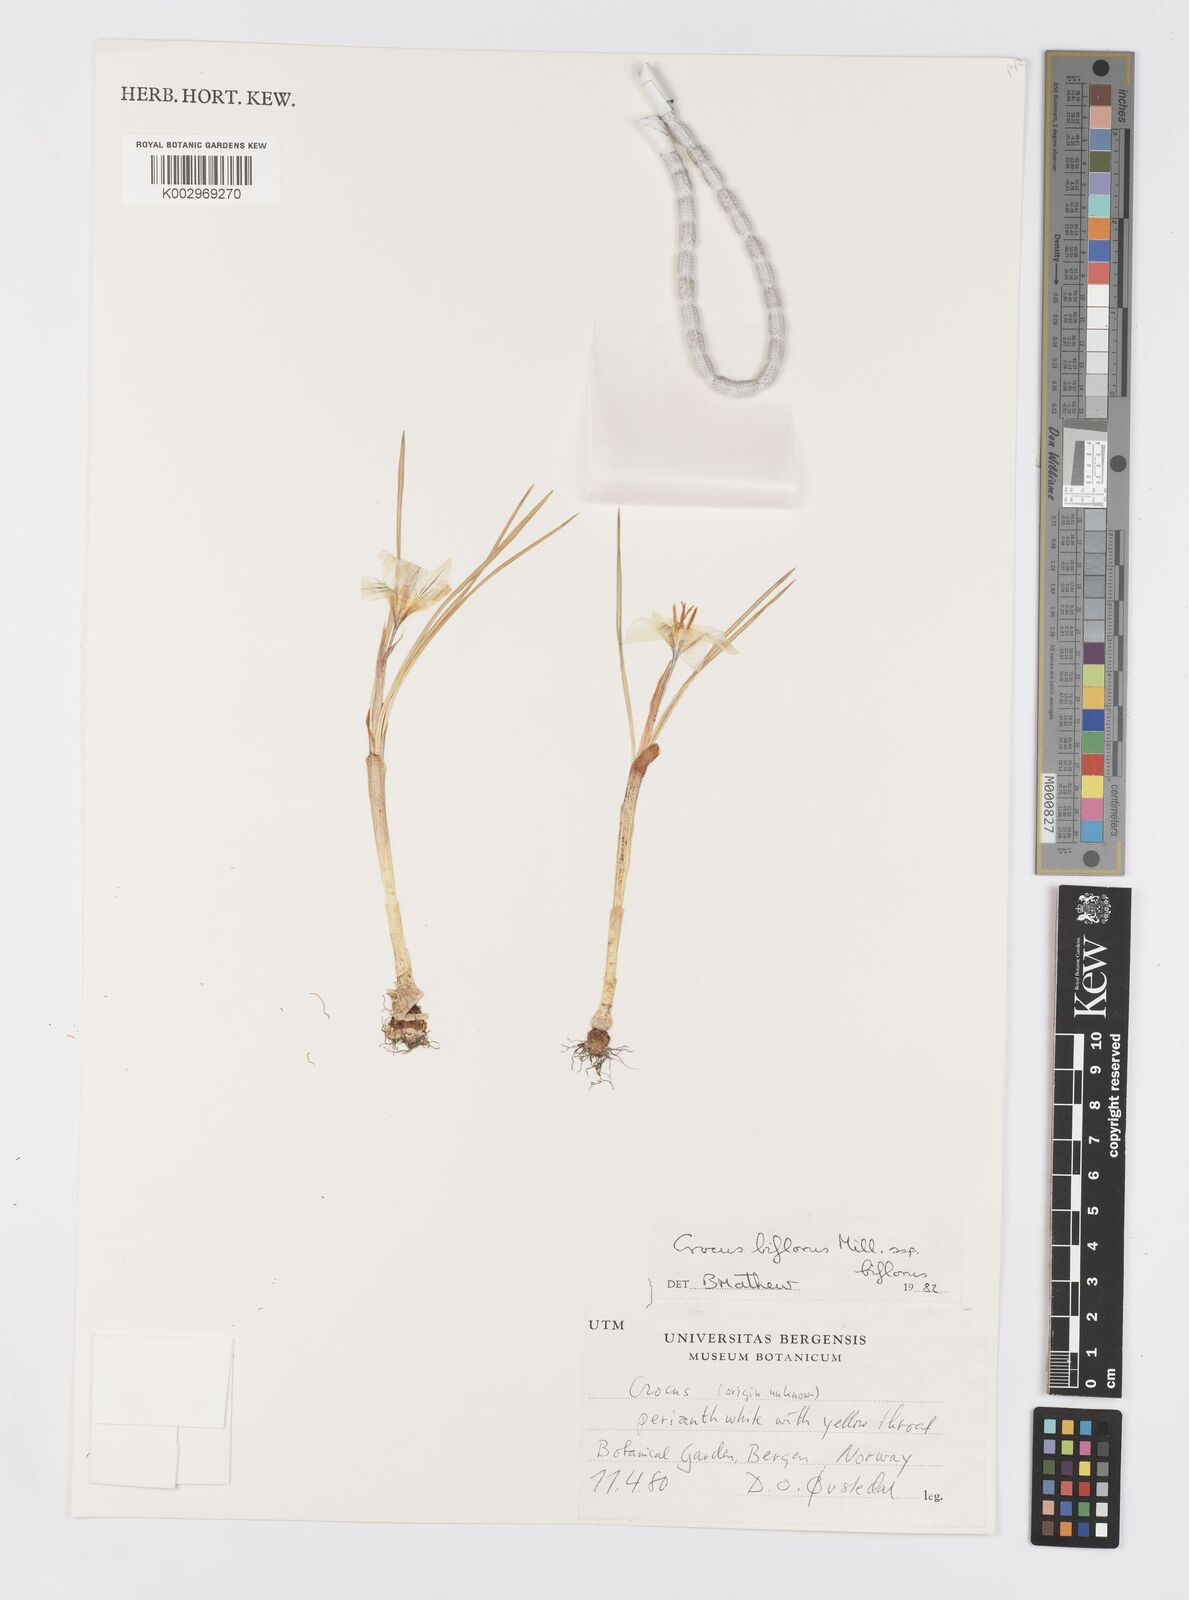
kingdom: Plantae
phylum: Tracheophyta
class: Liliopsida
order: Asparagales
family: Iridaceae
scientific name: Iridaceae
